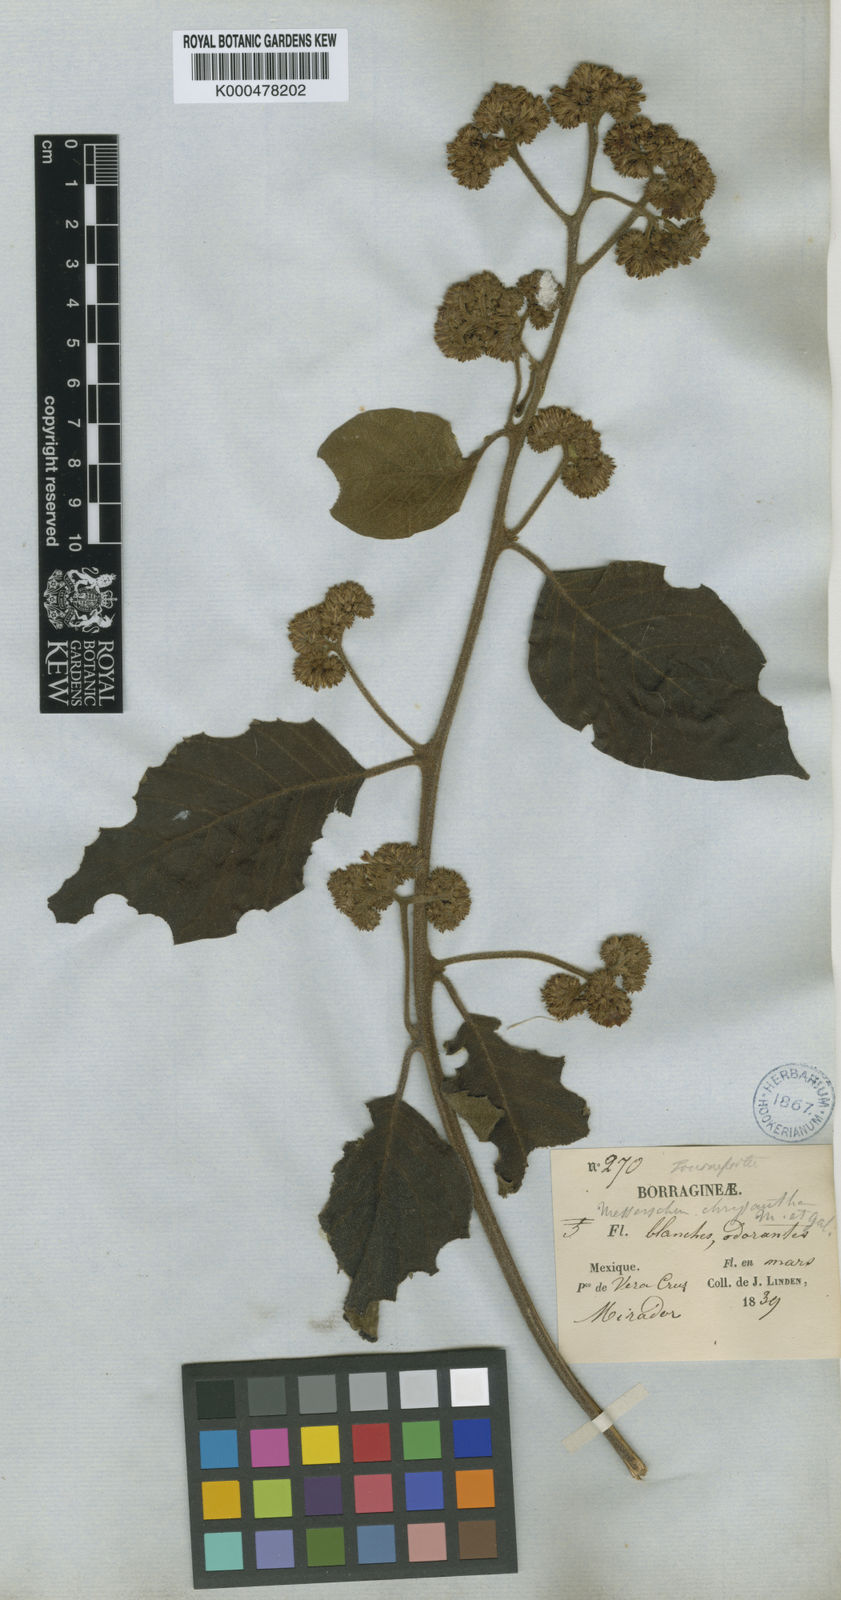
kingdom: Plantae
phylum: Tracheophyta
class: Magnoliopsida
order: Boraginales
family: Heliotropiaceae
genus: Tournefortia
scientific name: Tournefortia chrysantha
